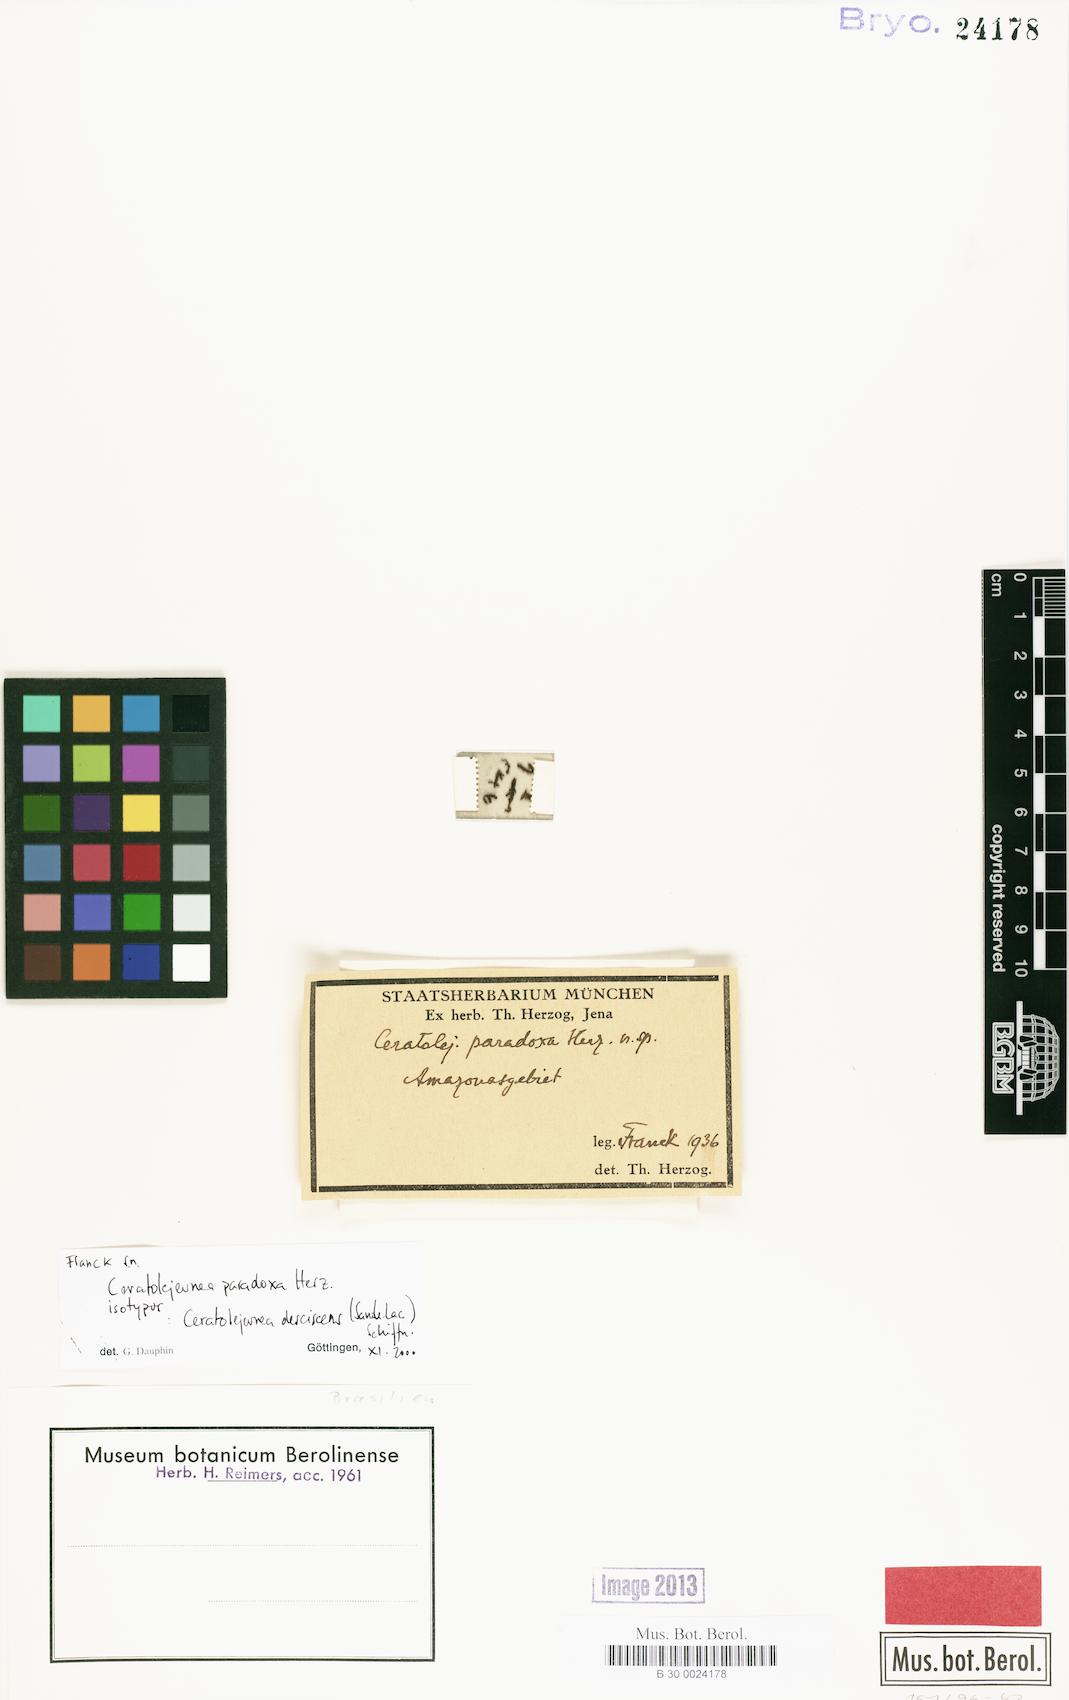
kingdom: Plantae
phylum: Marchantiophyta
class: Jungermanniopsida
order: Porellales
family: Lejeuneaceae
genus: Ceratolejeunea
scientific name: Ceratolejeunea desciscens
